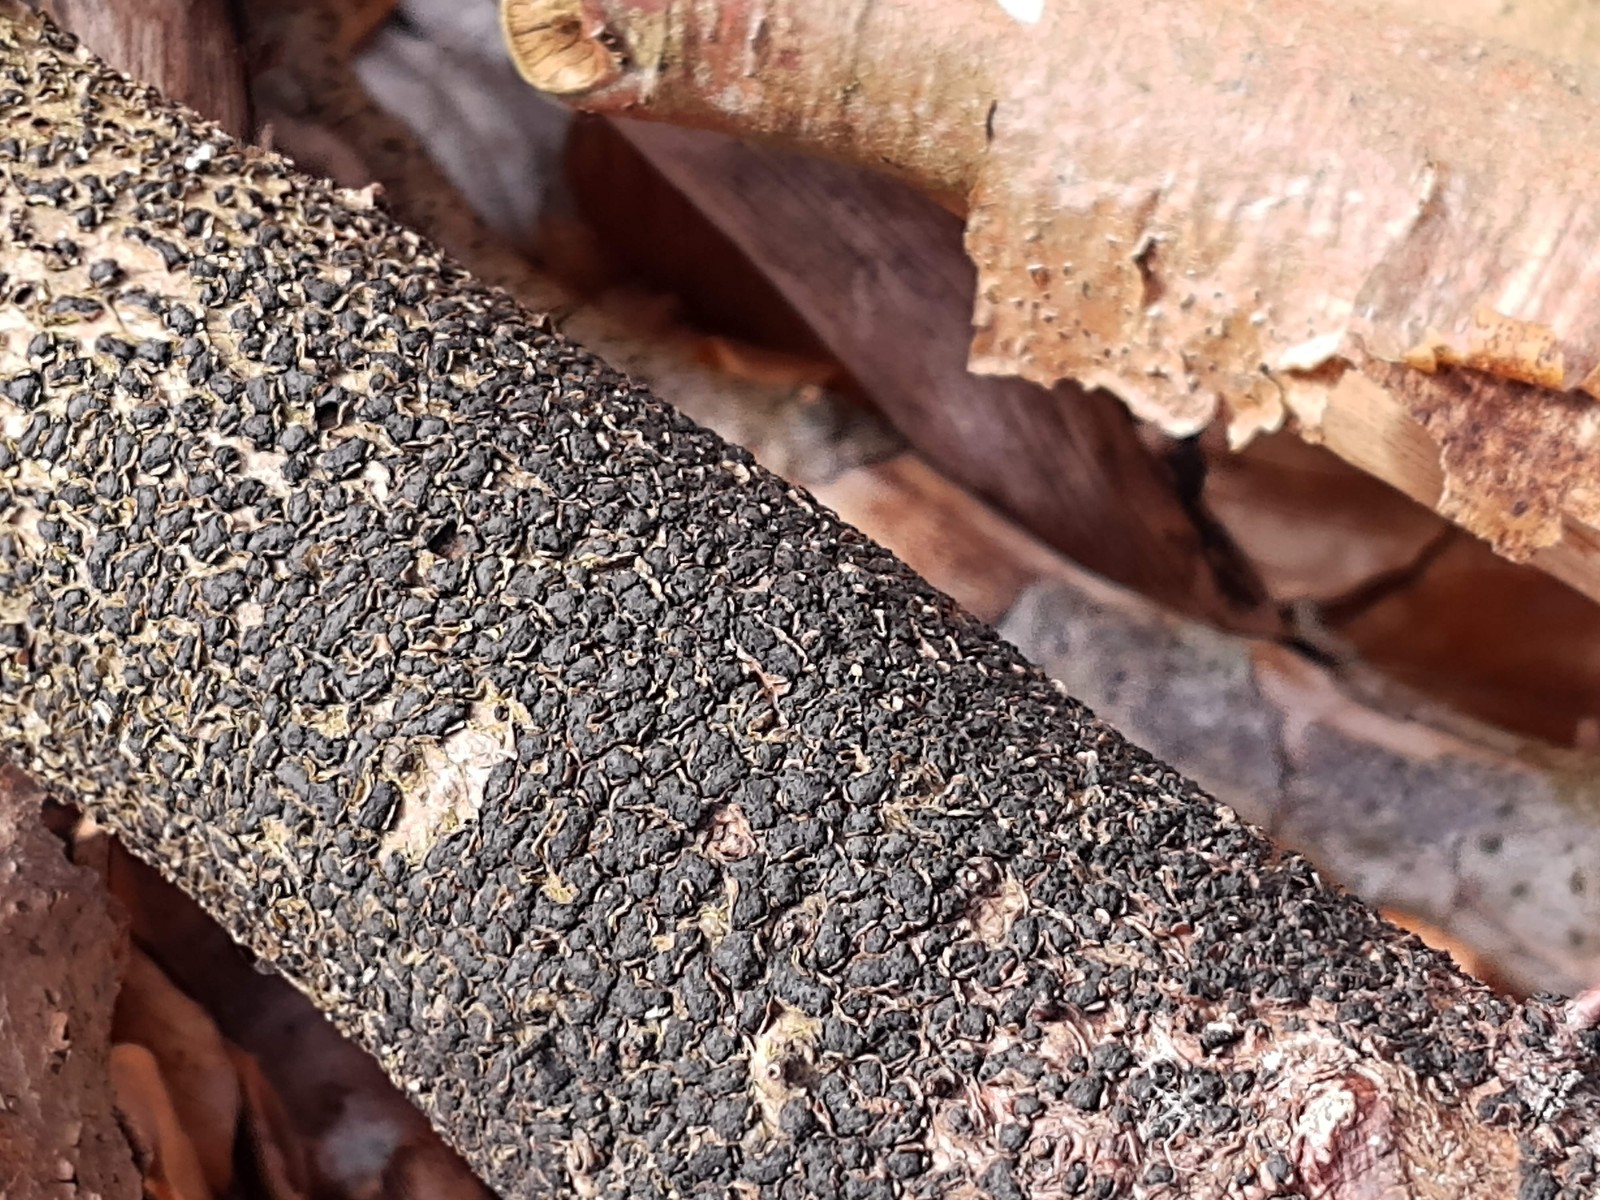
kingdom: Fungi
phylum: Ascomycota
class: Sordariomycetes
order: Xylariales
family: Melogrammataceae
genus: Melogramma
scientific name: Melogramma spiniferum
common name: bøgefod-kulhals
